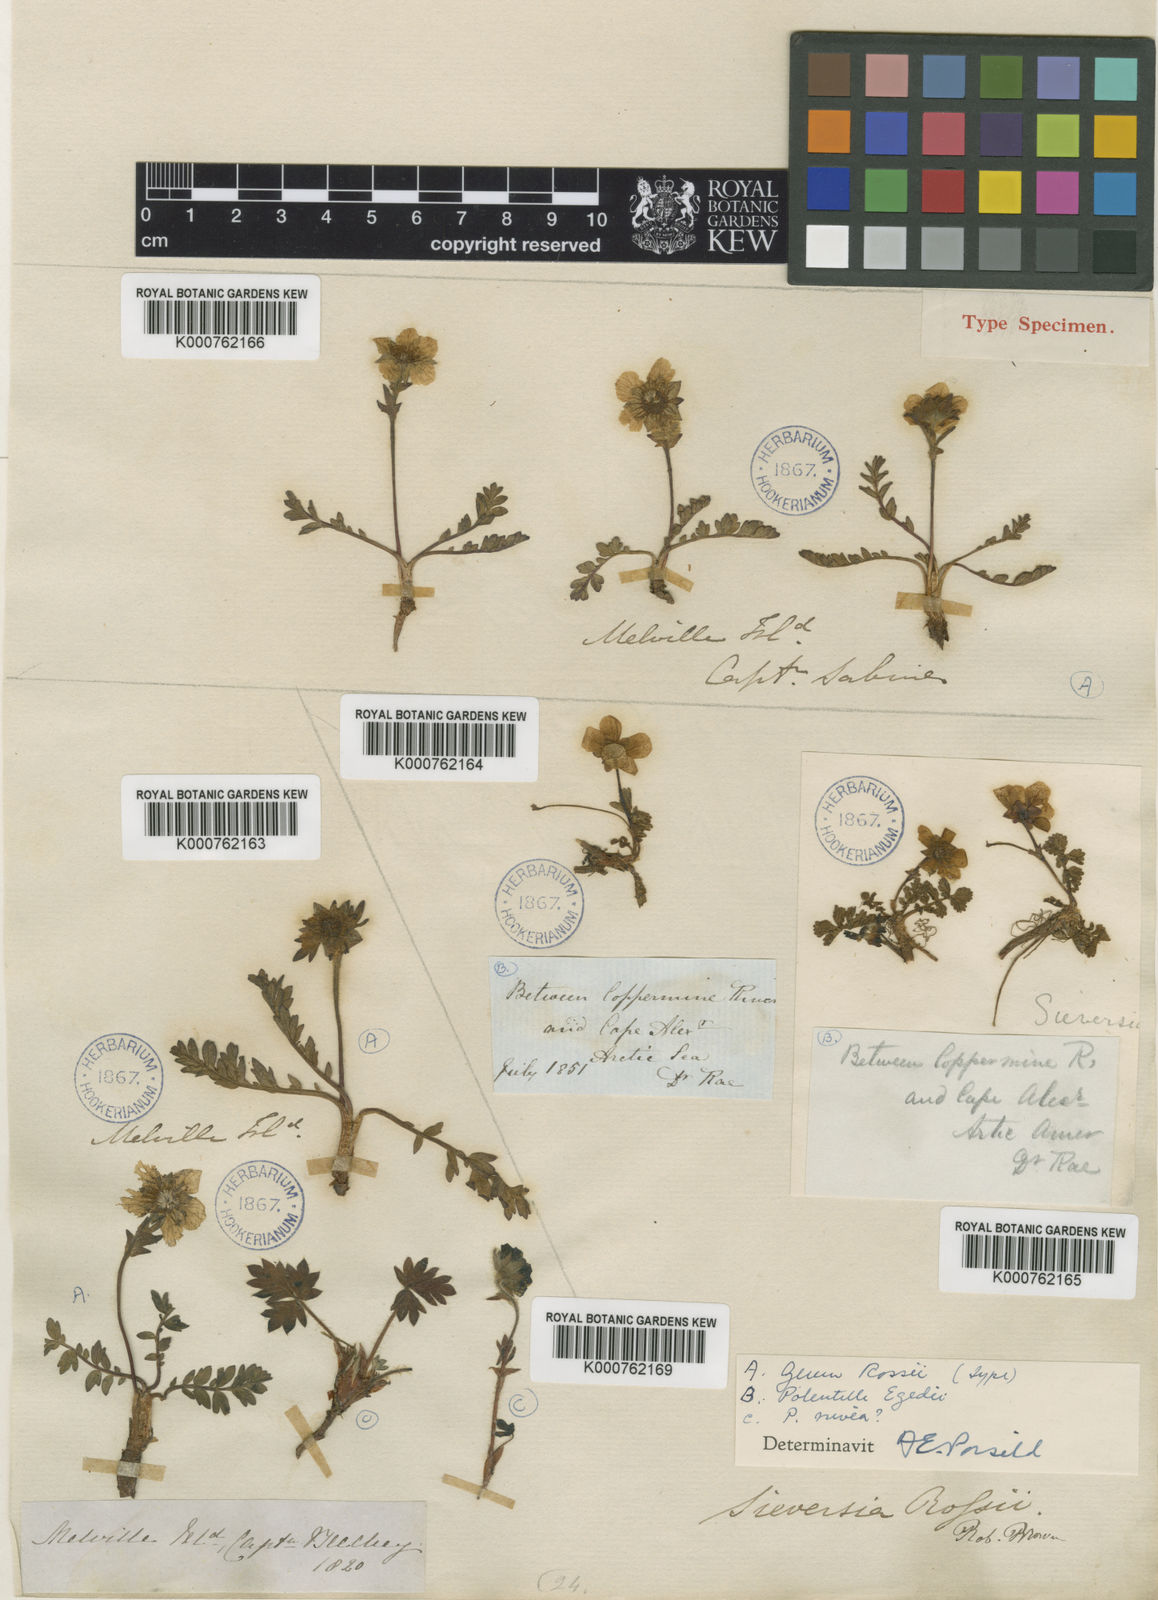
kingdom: Plantae
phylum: Tracheophyta
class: Magnoliopsida
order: Rosales
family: Rosaceae
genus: Geum
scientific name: Geum rossii
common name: Alpine avens
